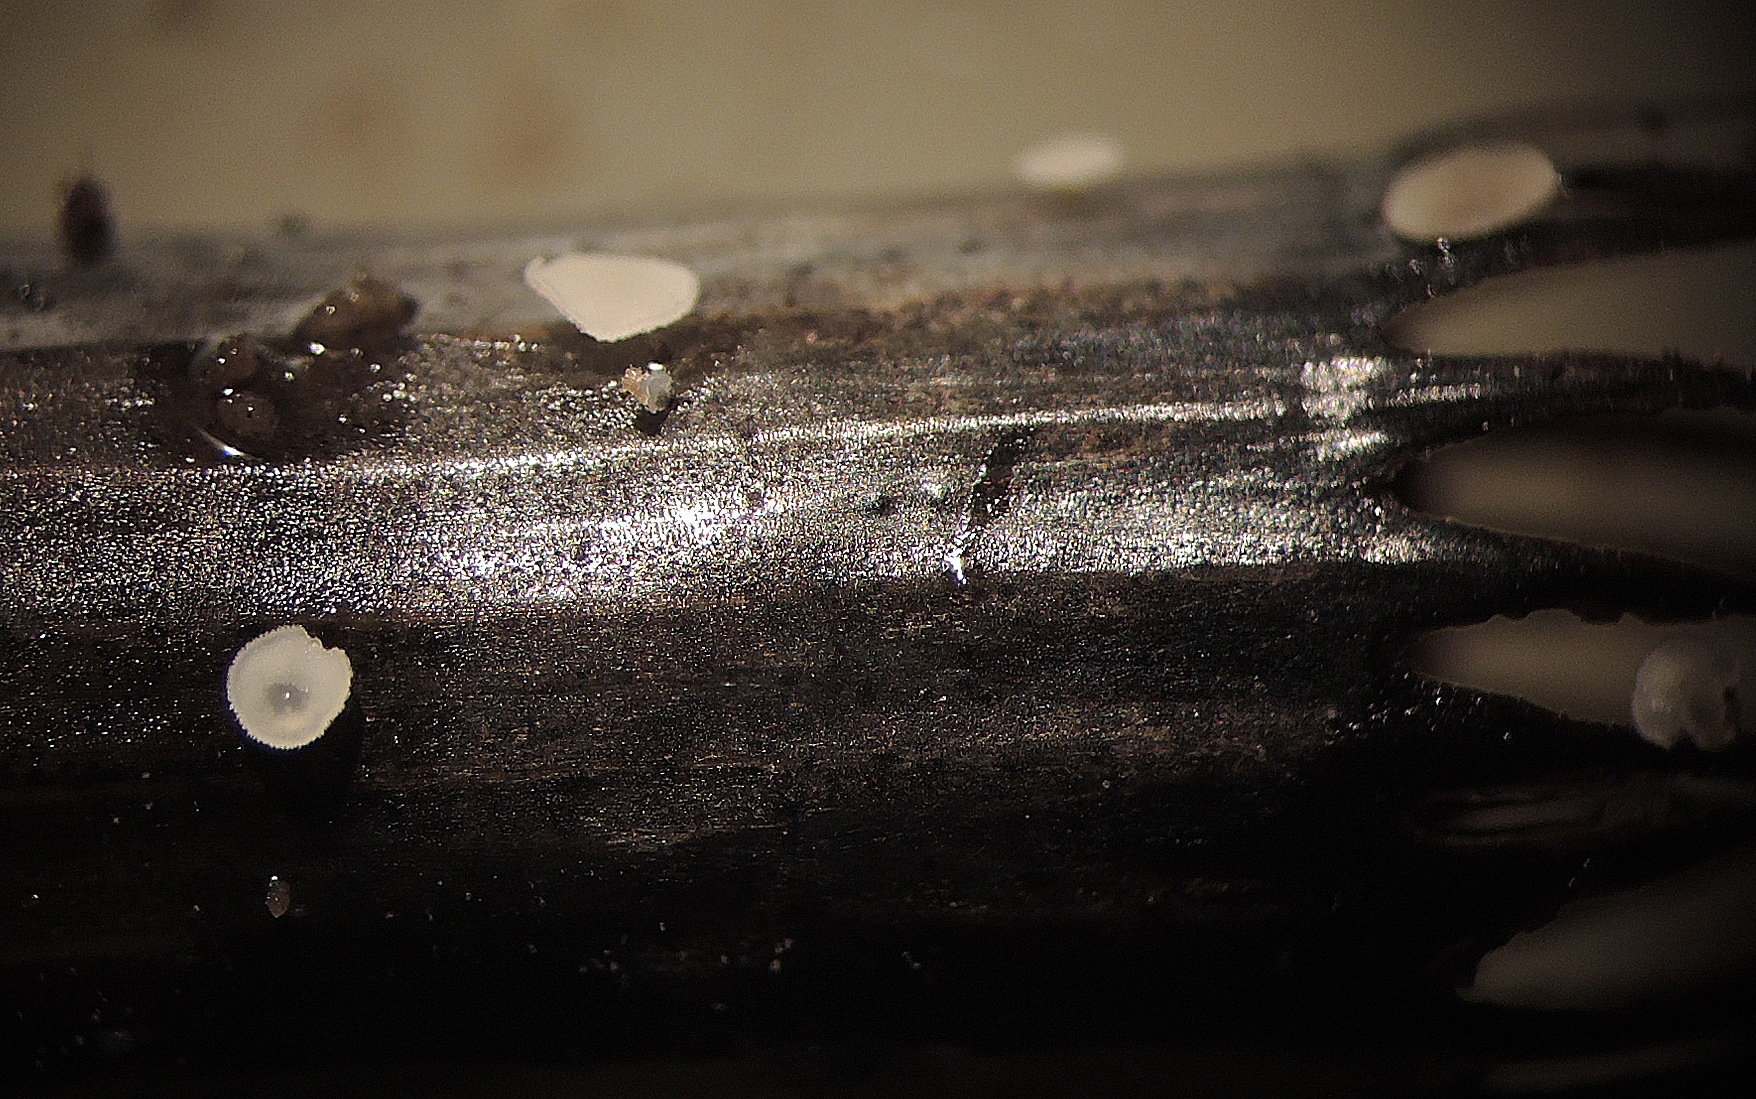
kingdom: Fungi
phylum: Ascomycota
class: Leotiomycetes
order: Helotiales
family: Pezizellaceae
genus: Psilachnum
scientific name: Psilachnum inquilinum
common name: padderok-hårskive
